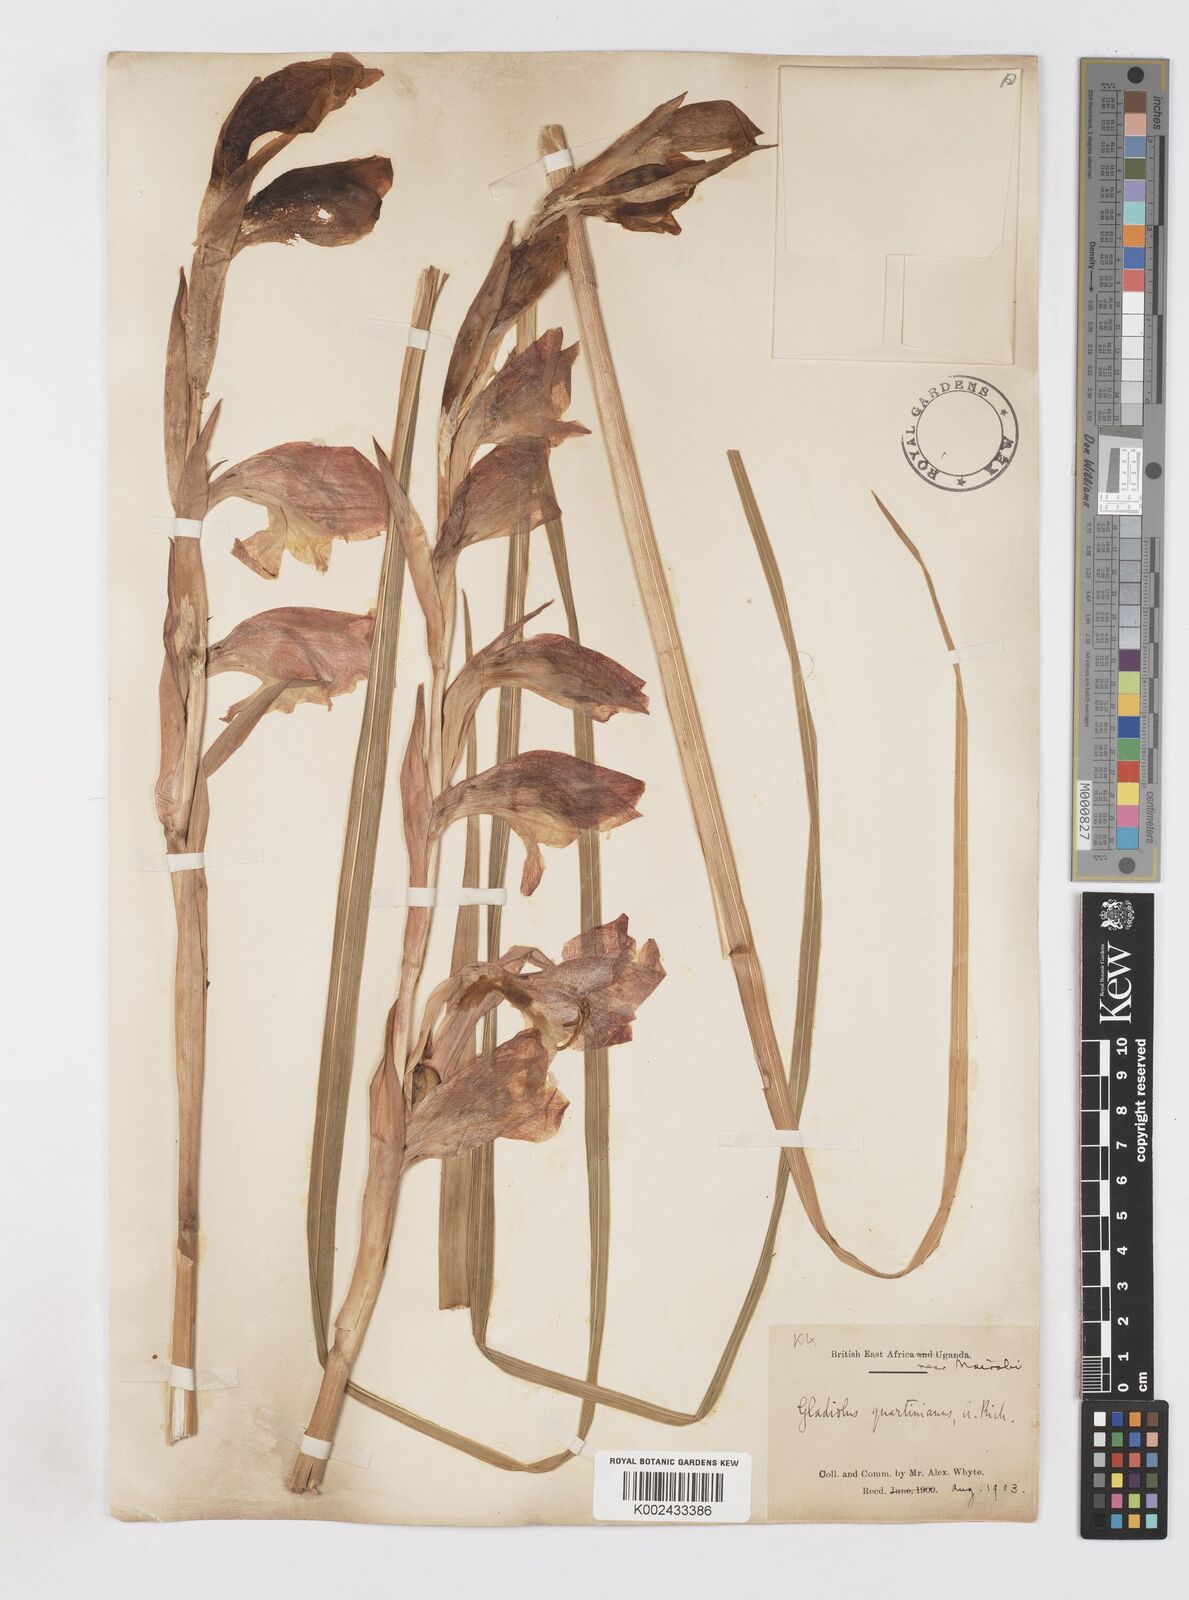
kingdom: Plantae
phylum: Tracheophyta
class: Liliopsida
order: Asparagales
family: Iridaceae
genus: Gladiolus
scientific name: Gladiolus dalenii
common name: Cornflag
